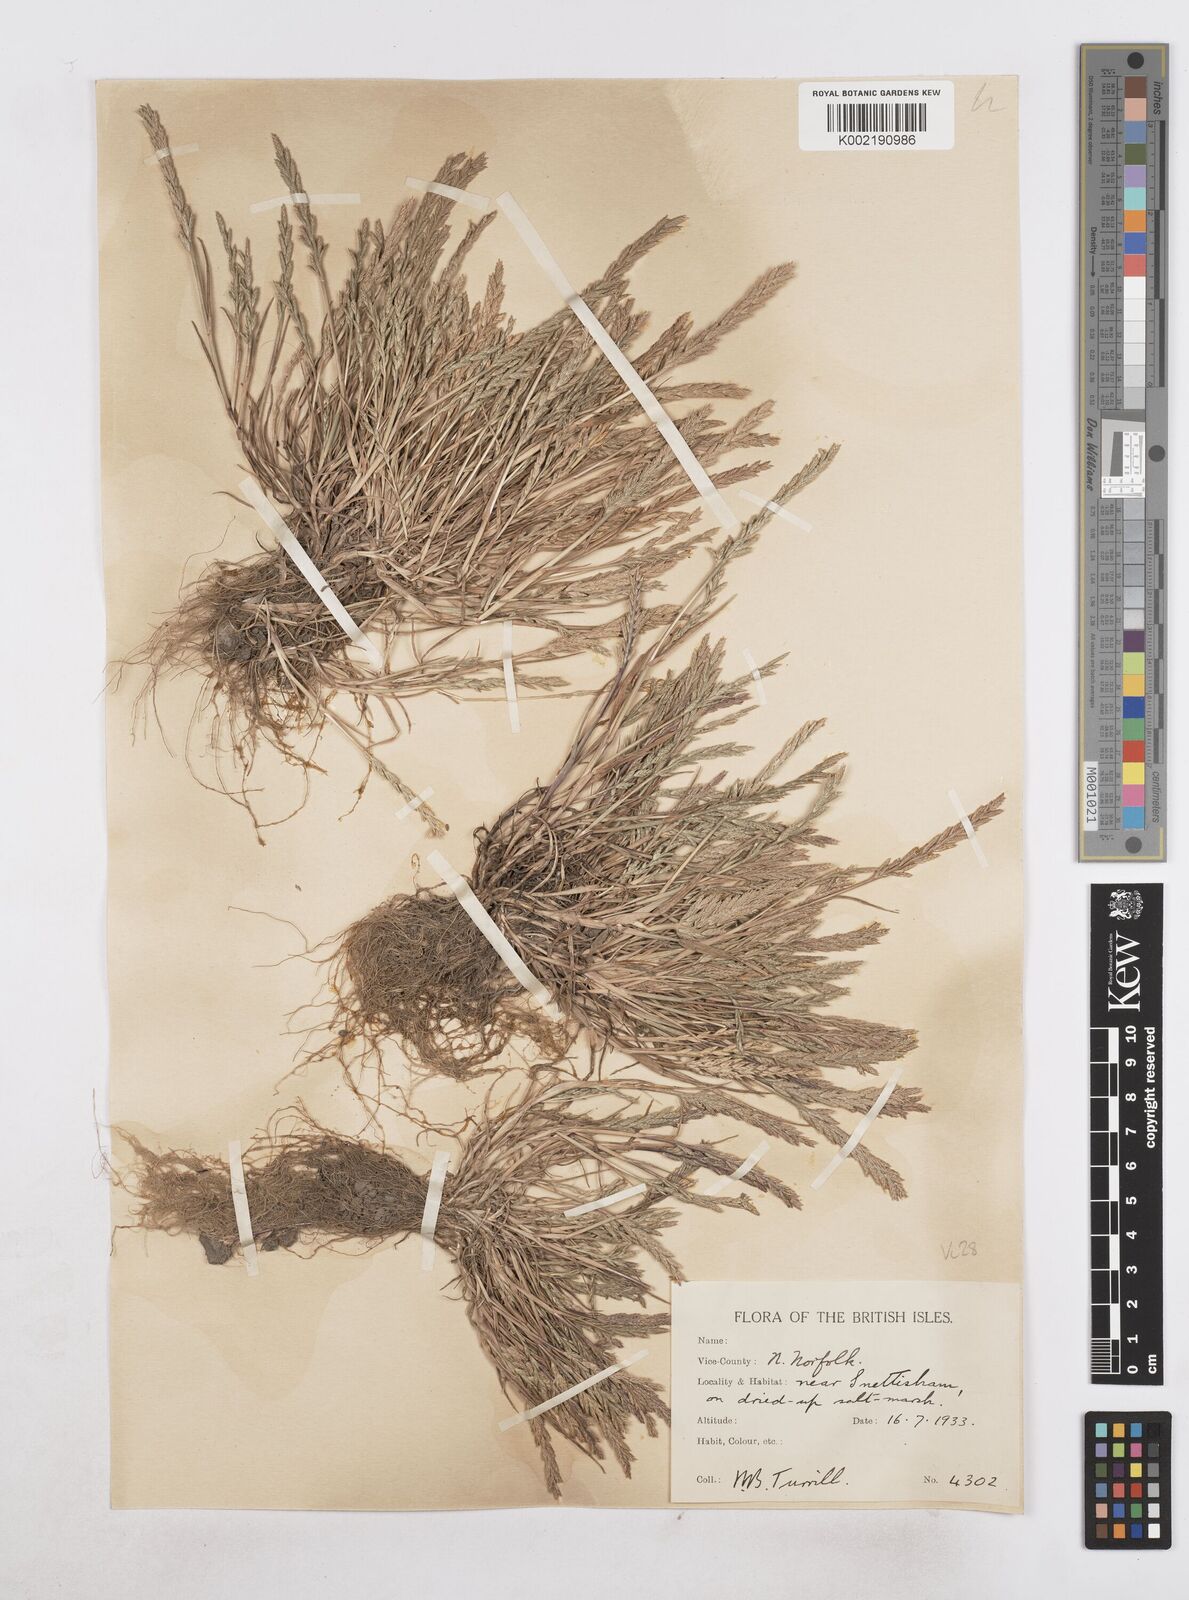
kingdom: Plantae
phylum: Tracheophyta
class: Liliopsida
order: Poales
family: Poaceae
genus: Catapodium
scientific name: Catapodium marinum
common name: Sea fern-grass
